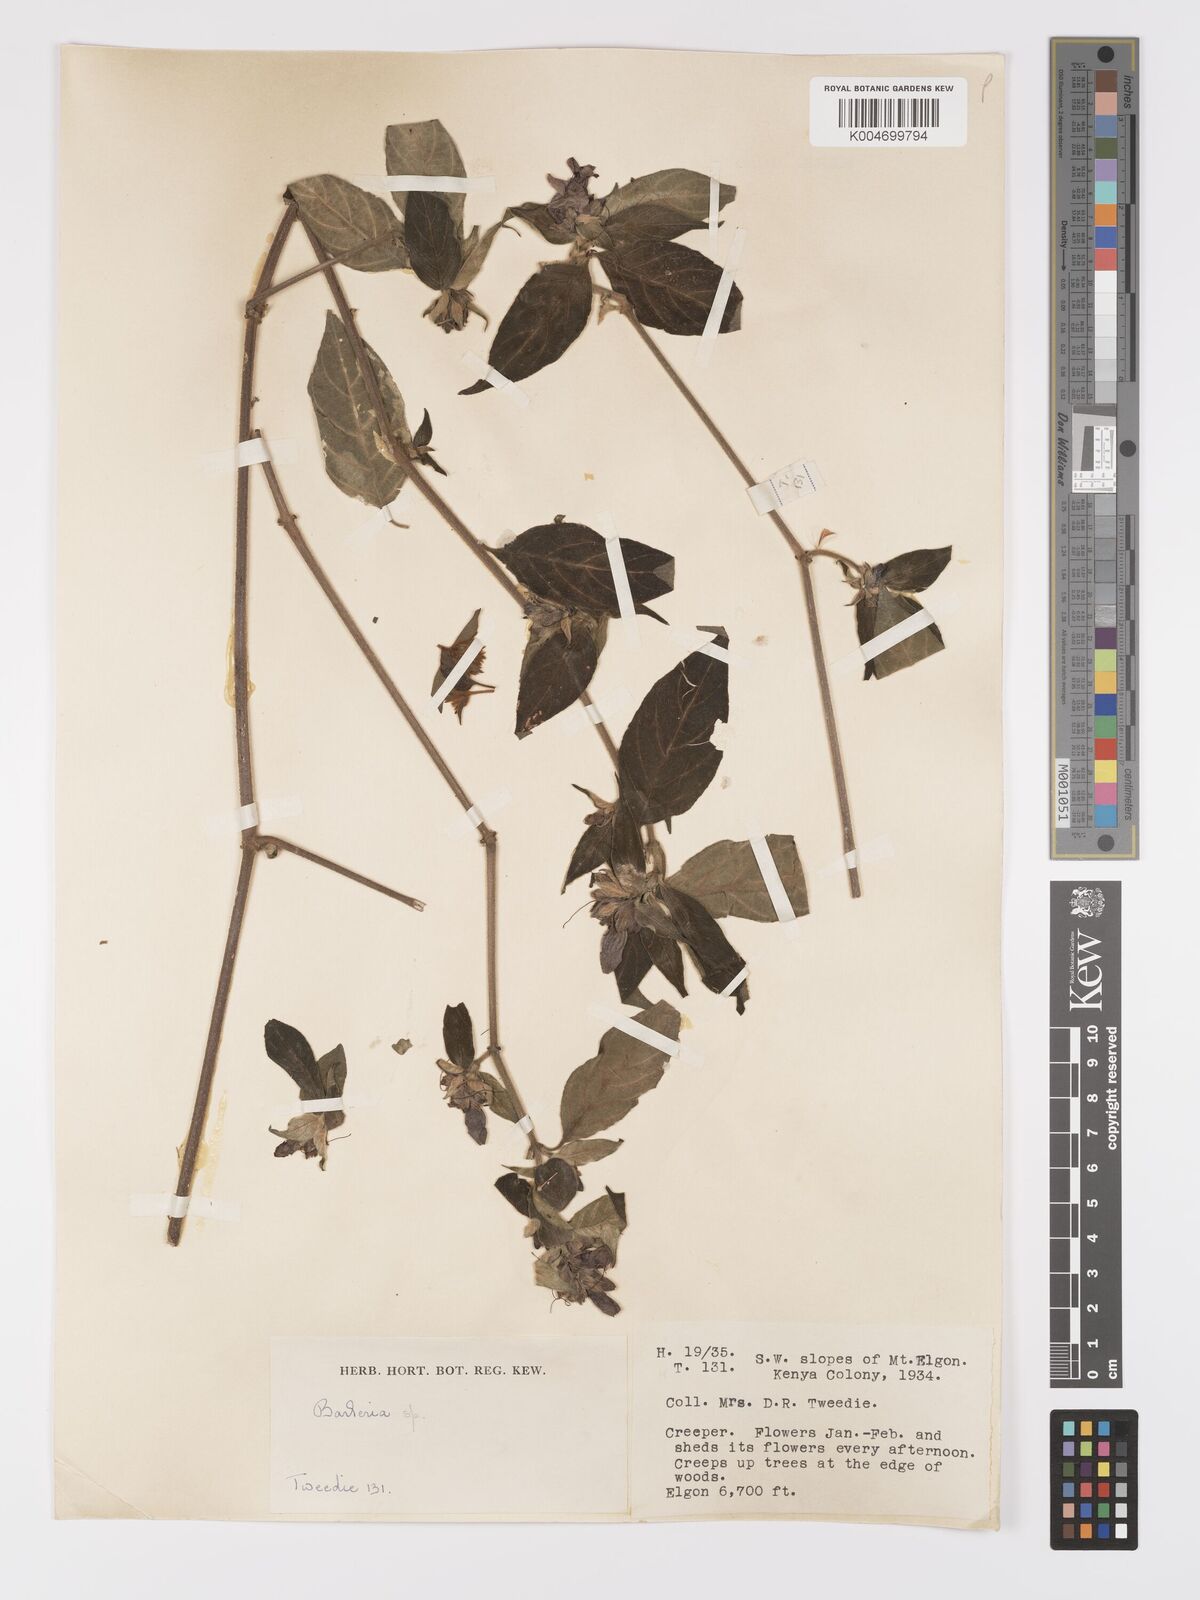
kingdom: Plantae
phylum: Tracheophyta
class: Magnoliopsida
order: Lamiales
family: Acanthaceae
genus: Barleria
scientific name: Barleria ventricosa
